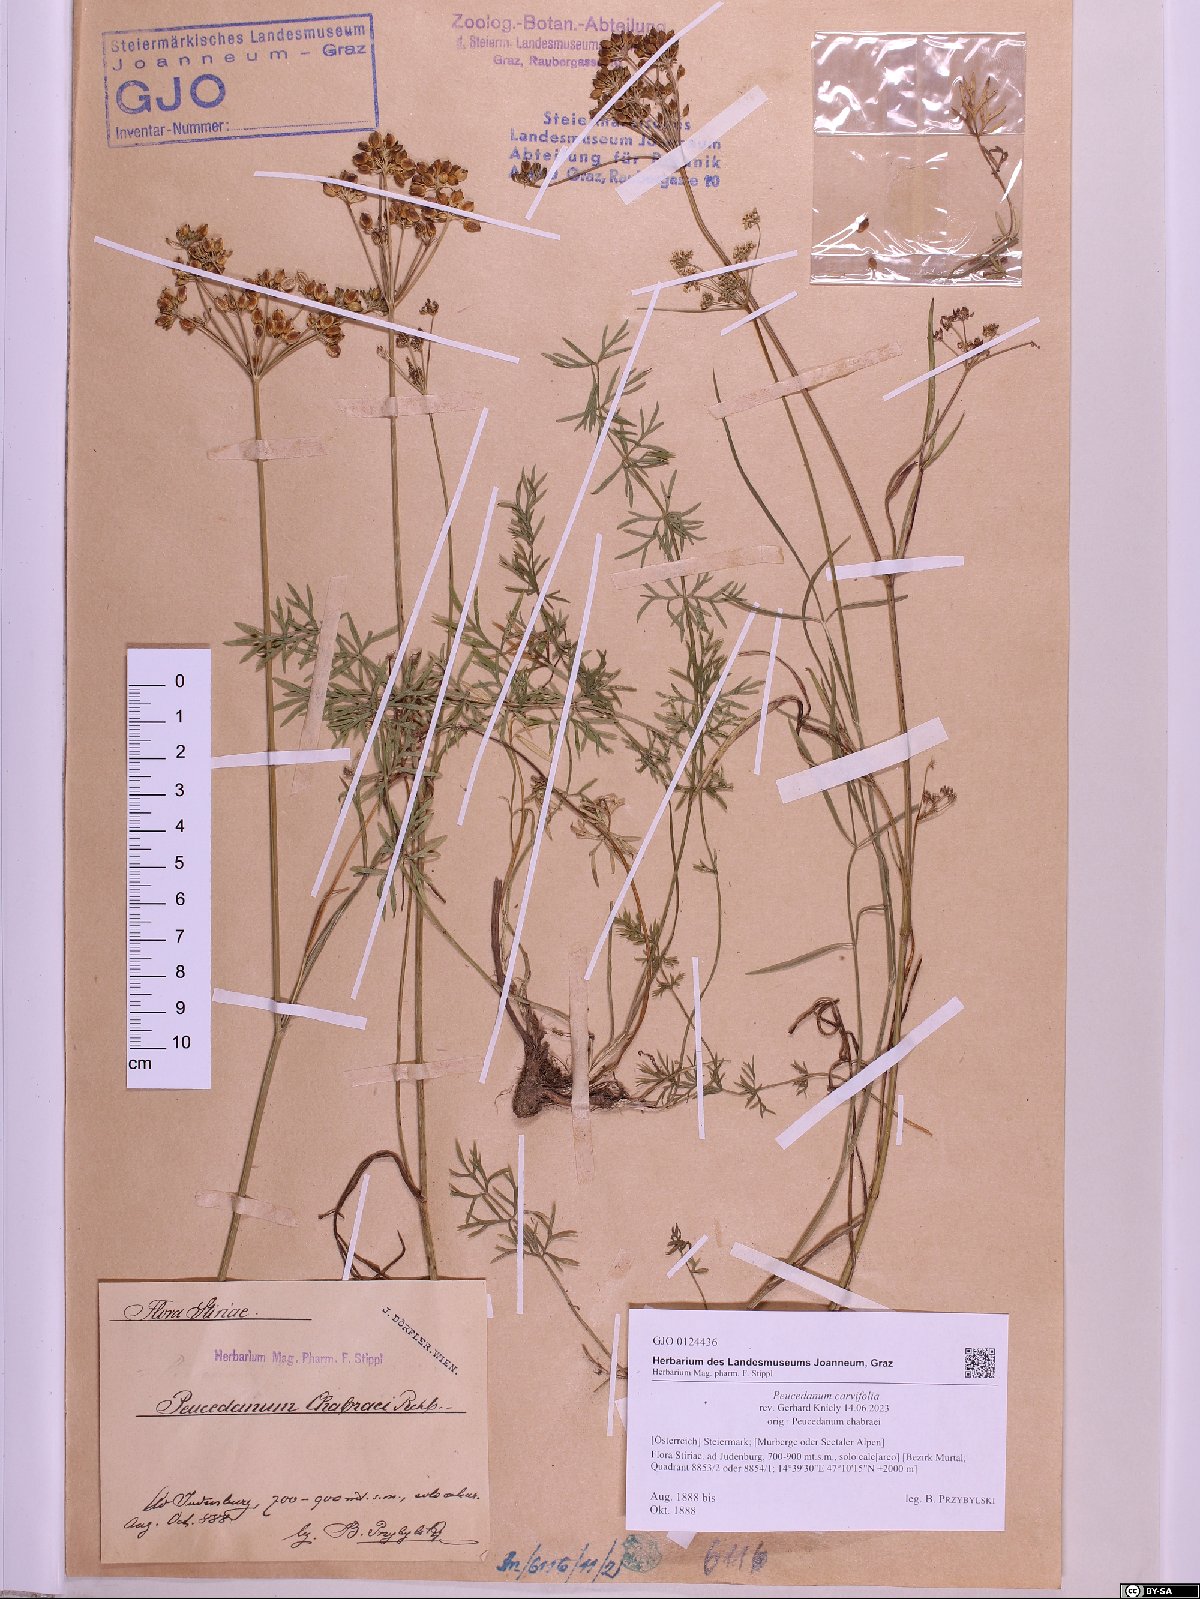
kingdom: Plantae
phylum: Tracheophyta
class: Magnoliopsida
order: Apiales
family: Apiaceae
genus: Dichoropetalum
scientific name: Dichoropetalum carvifolia
